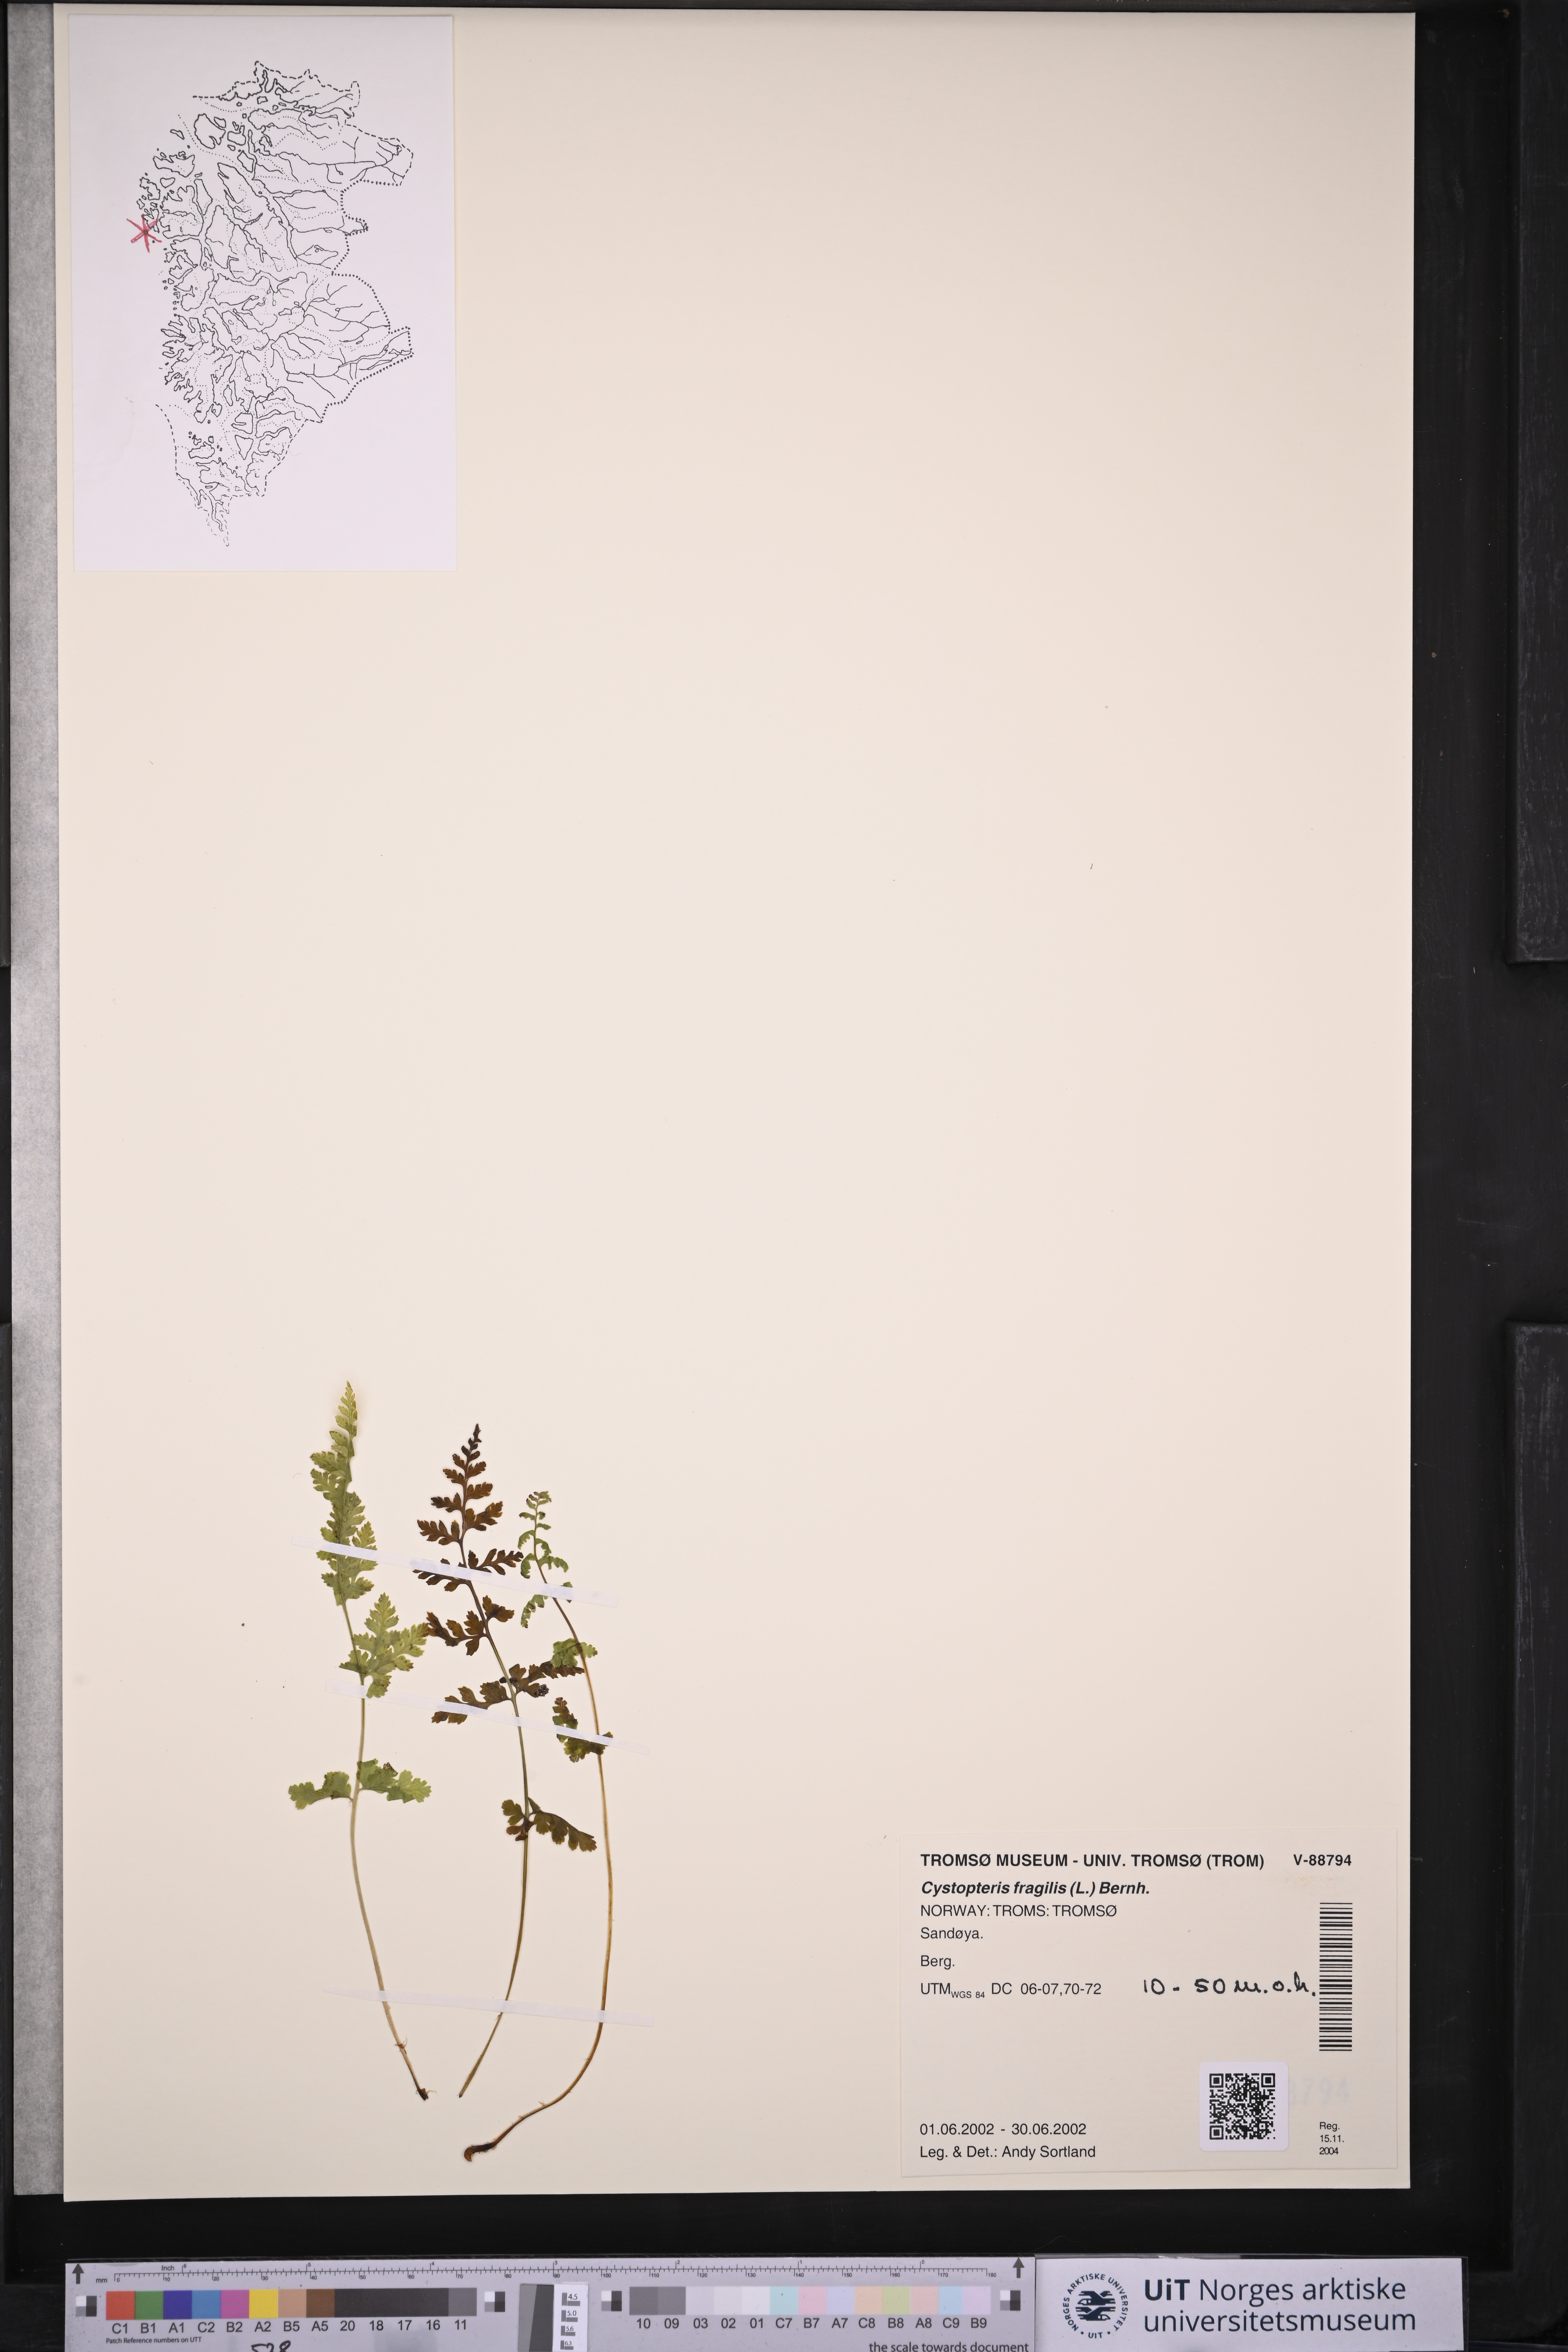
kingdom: Plantae
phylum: Tracheophyta
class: Polypodiopsida
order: Polypodiales
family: Cystopteridaceae
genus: Cystopteris
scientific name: Cystopteris fragilis
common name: Brittle bladder fern
